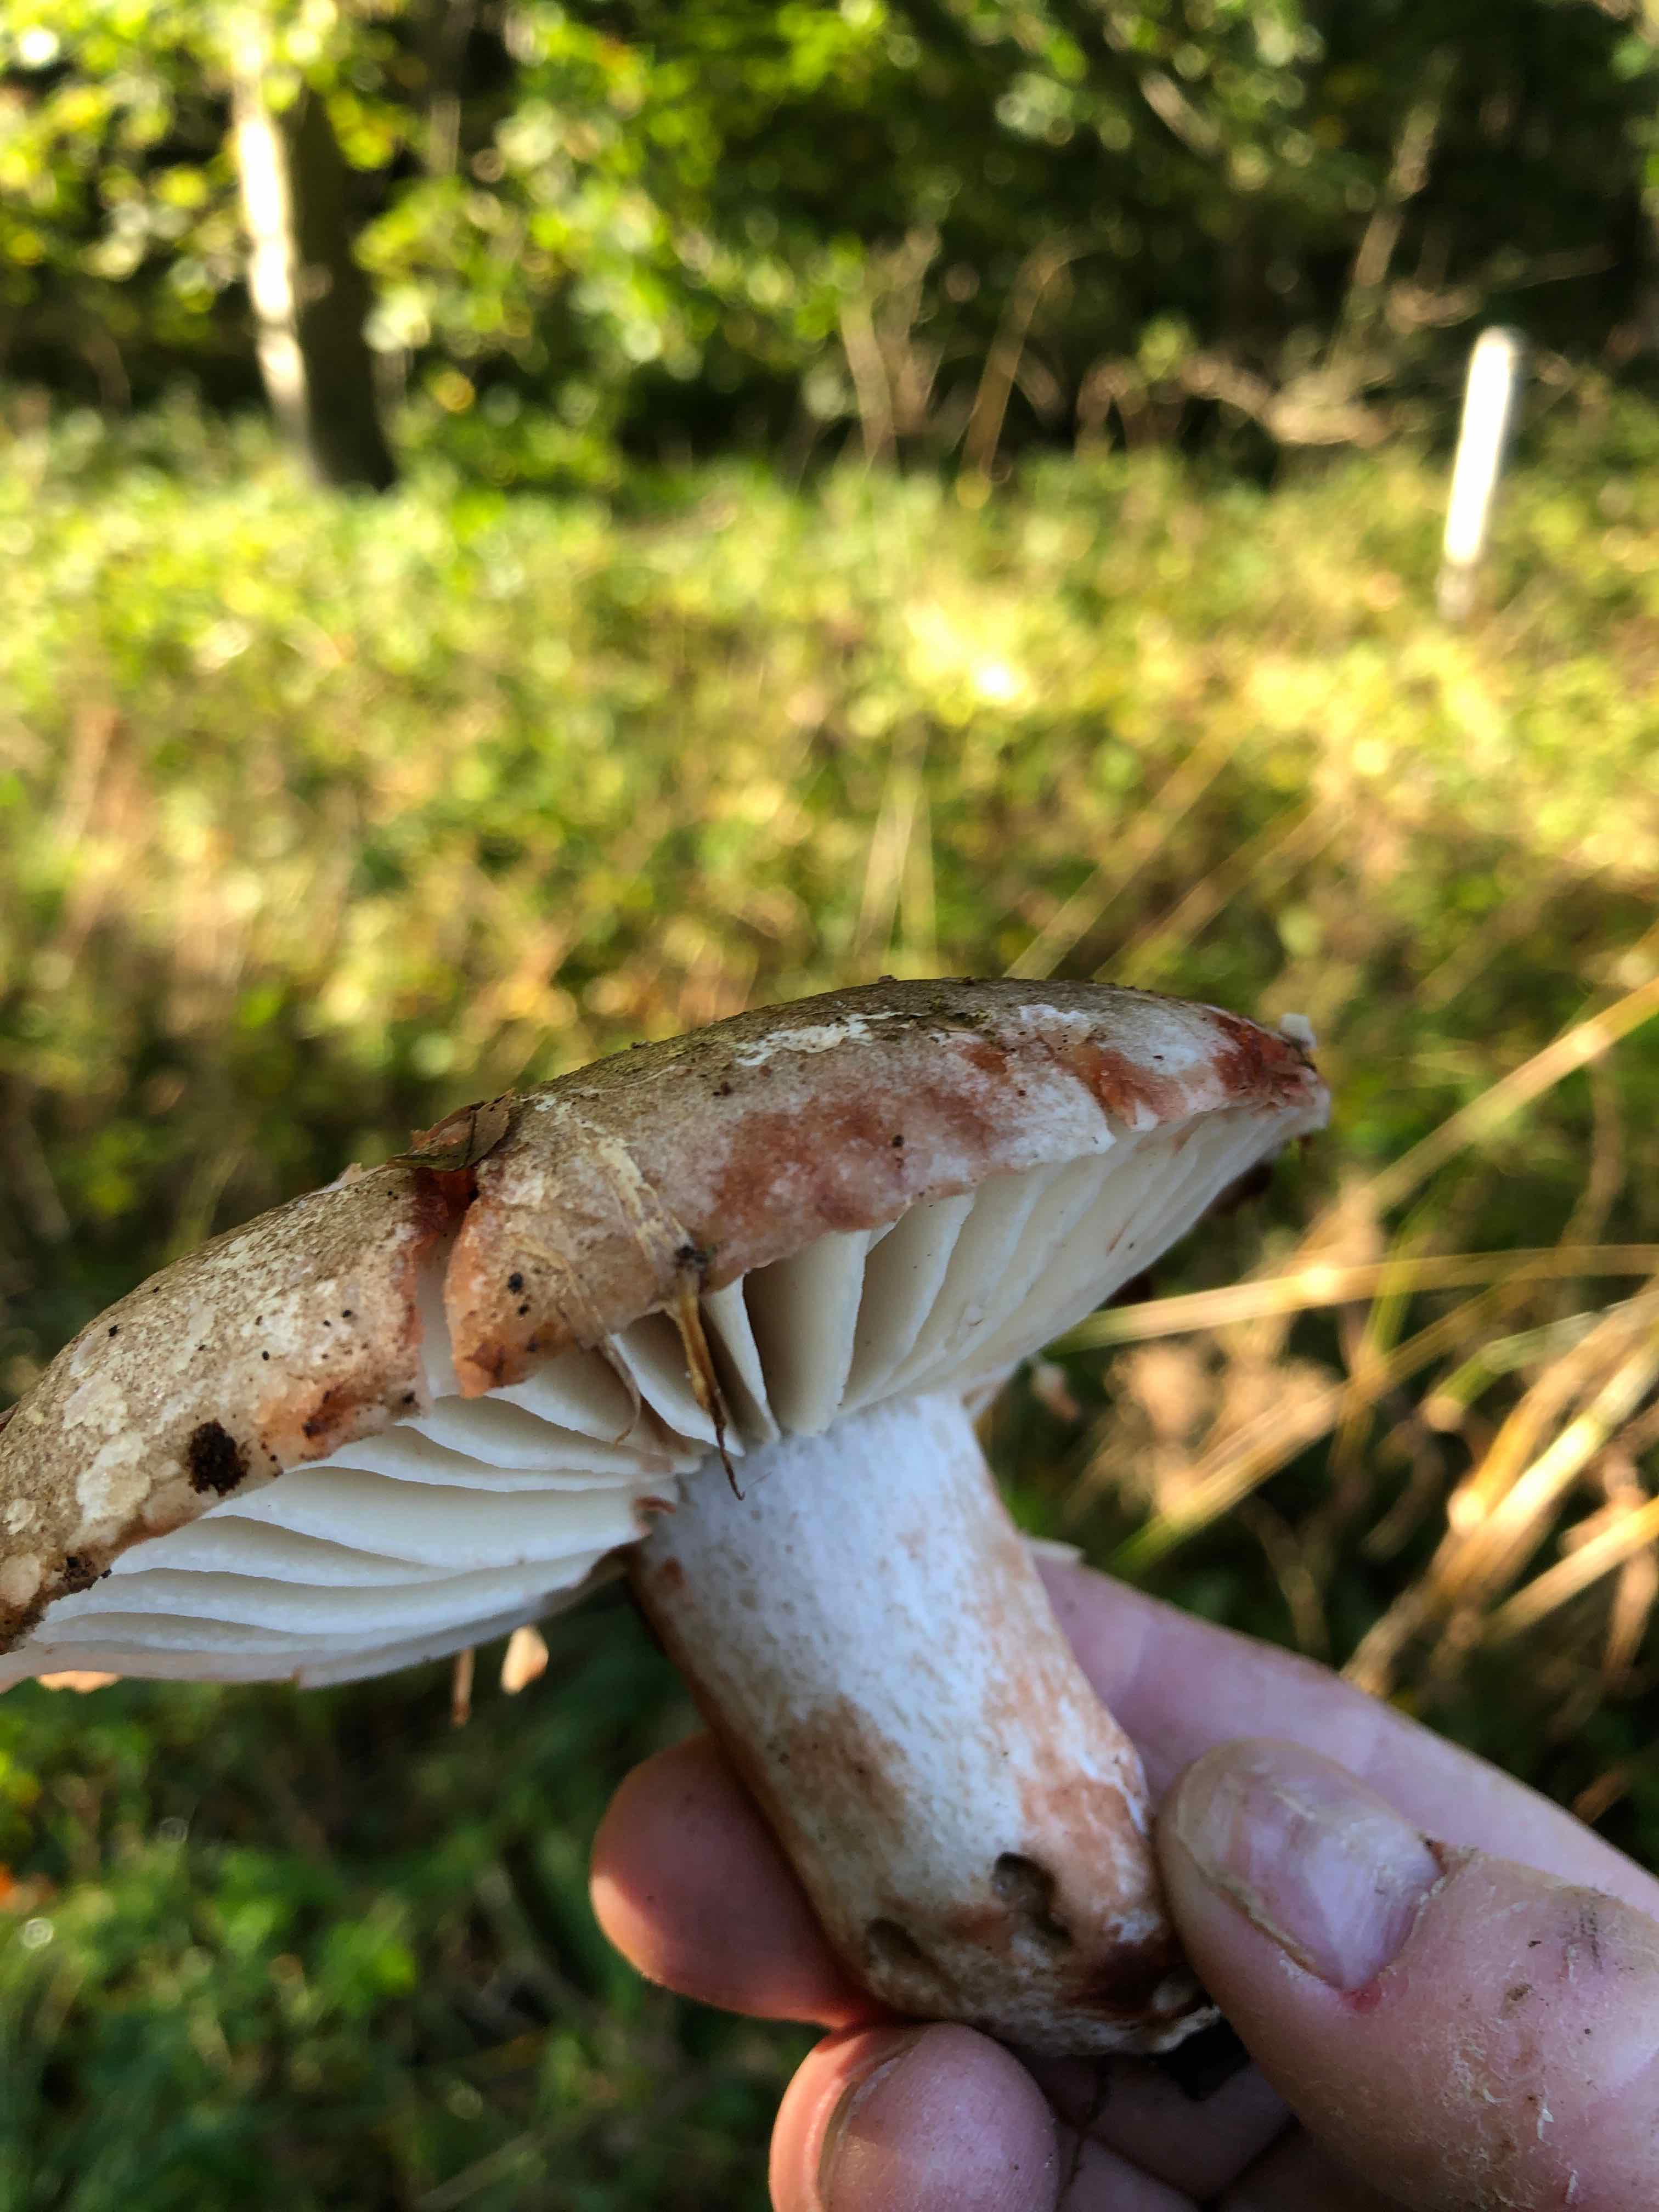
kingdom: Fungi
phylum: Basidiomycota
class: Agaricomycetes
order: Russulales
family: Russulaceae
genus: Russula
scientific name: Russula adusta
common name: sværtende skørhat
